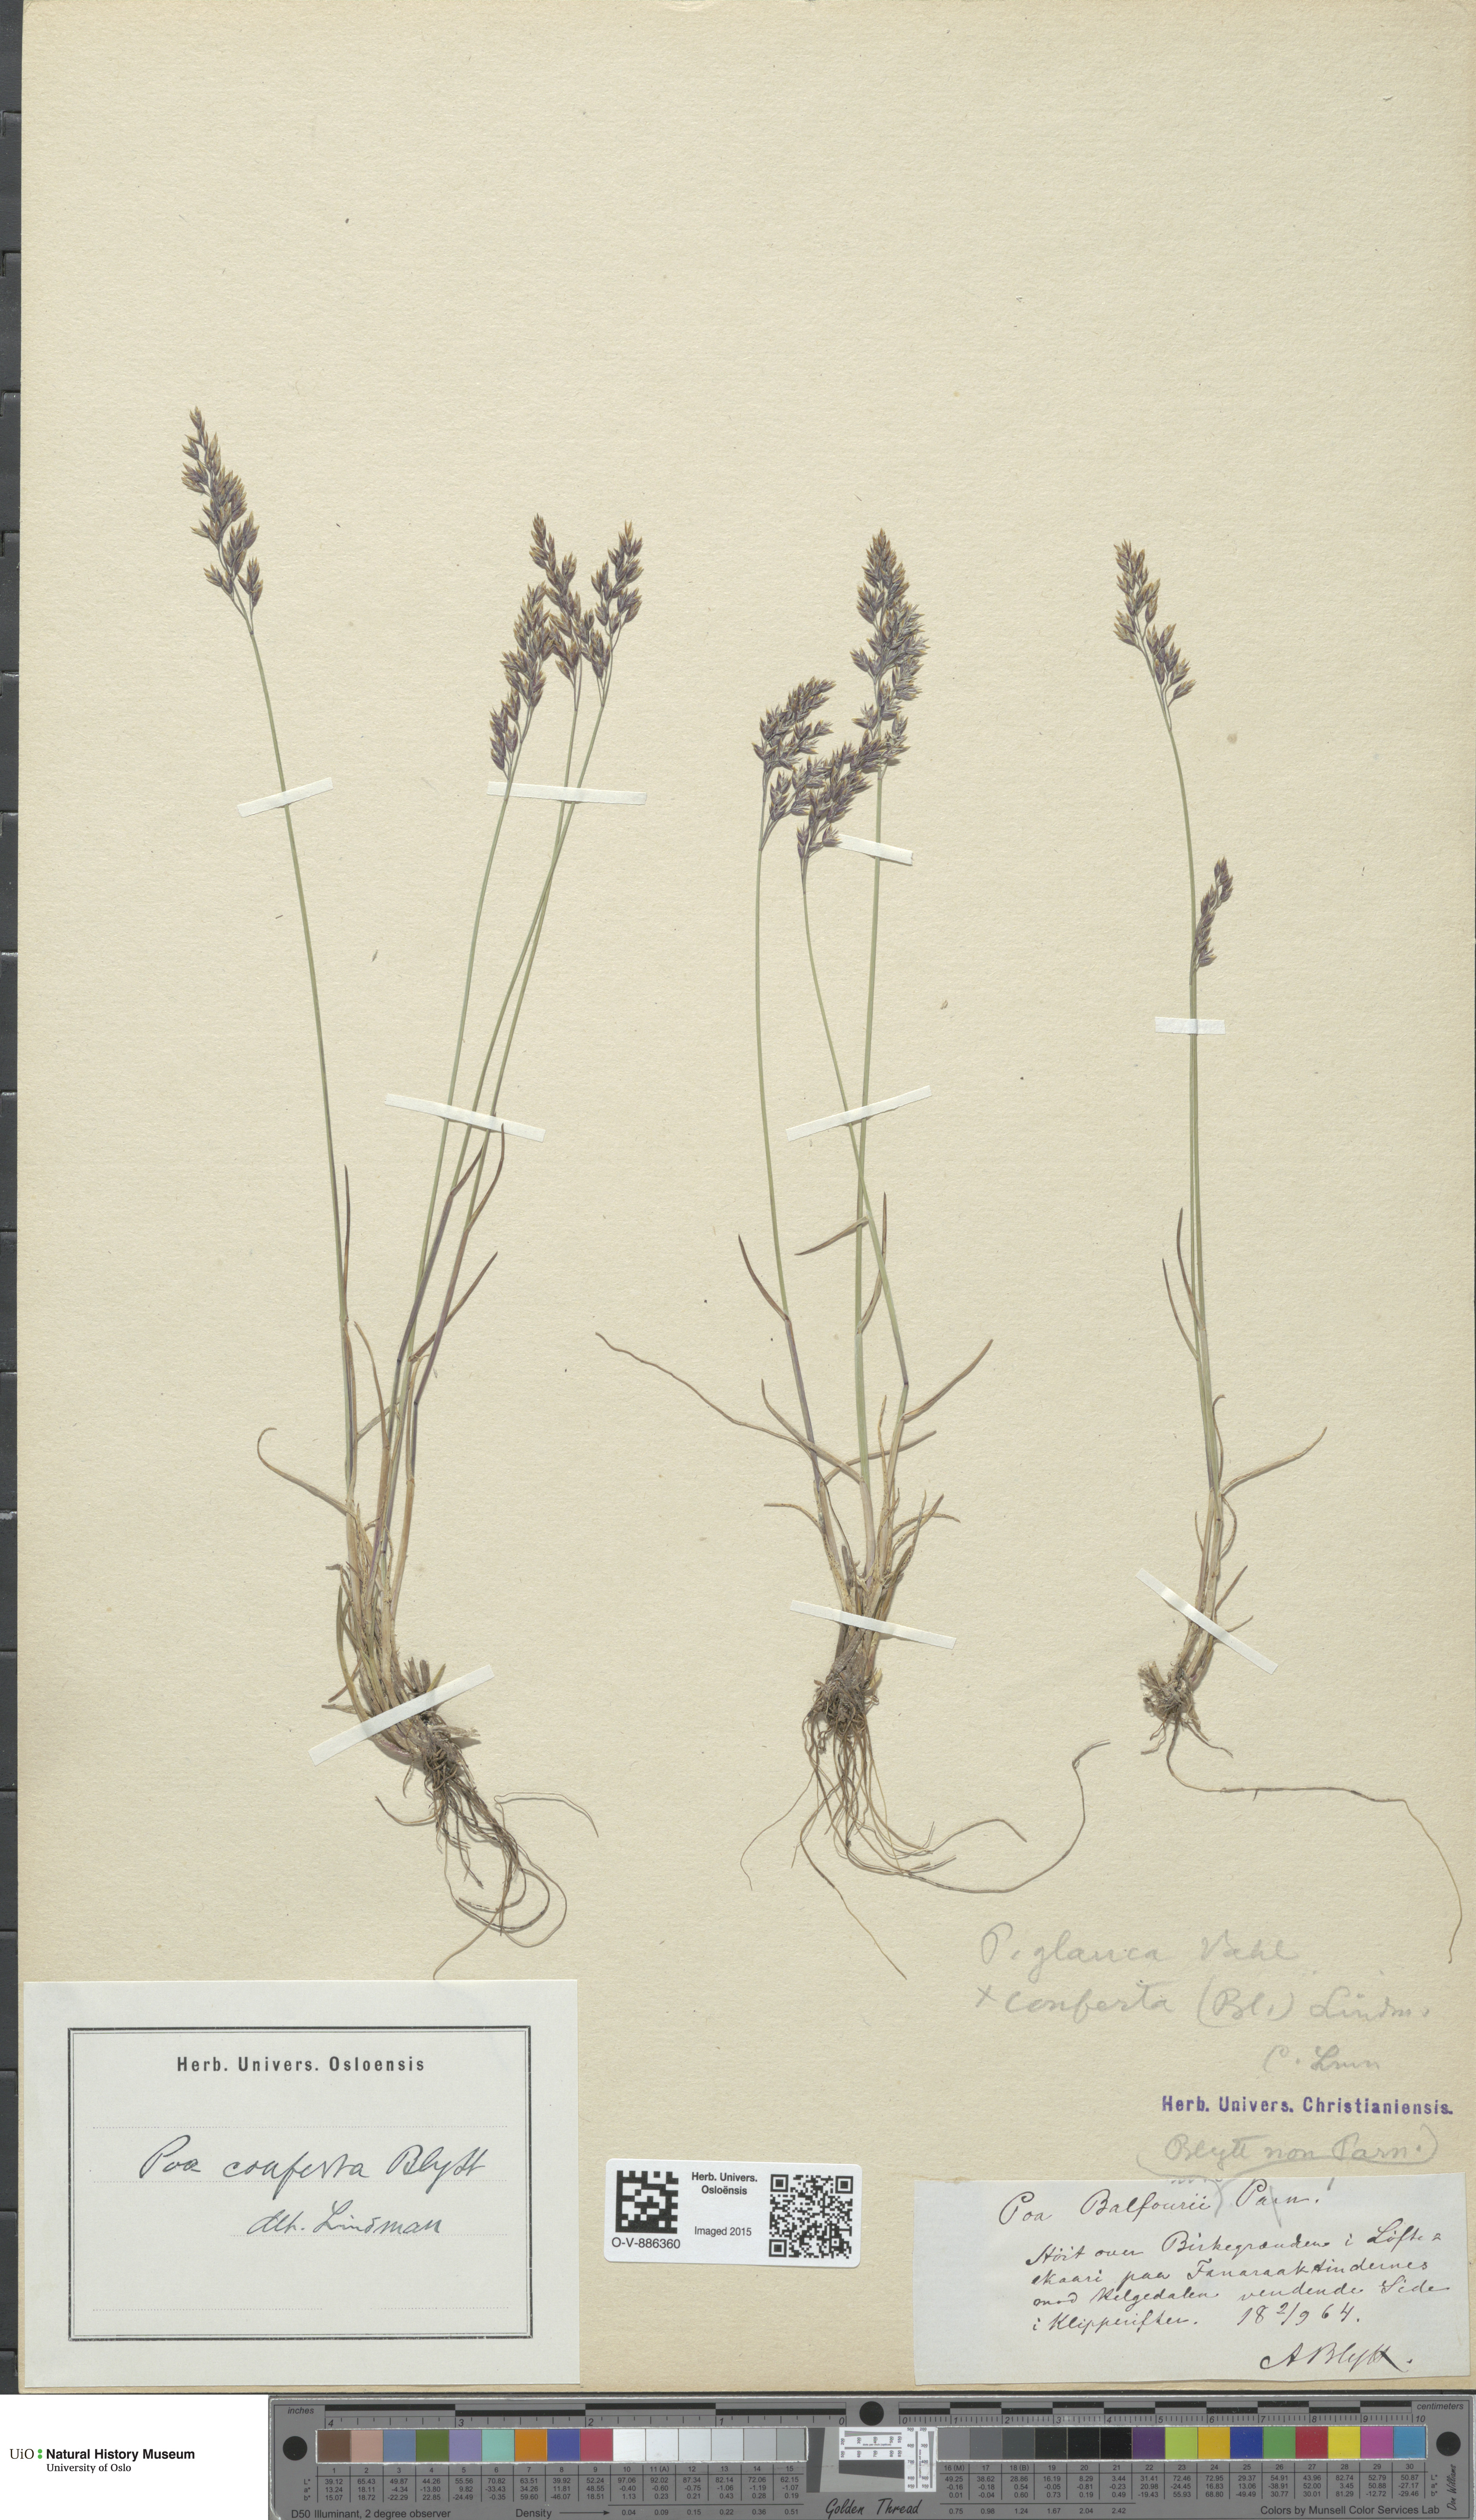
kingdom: Plantae
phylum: Tracheophyta
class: Liliopsida
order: Poales
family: Poaceae
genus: Poa
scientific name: Poa glauca
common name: Glaucous bluegrass
